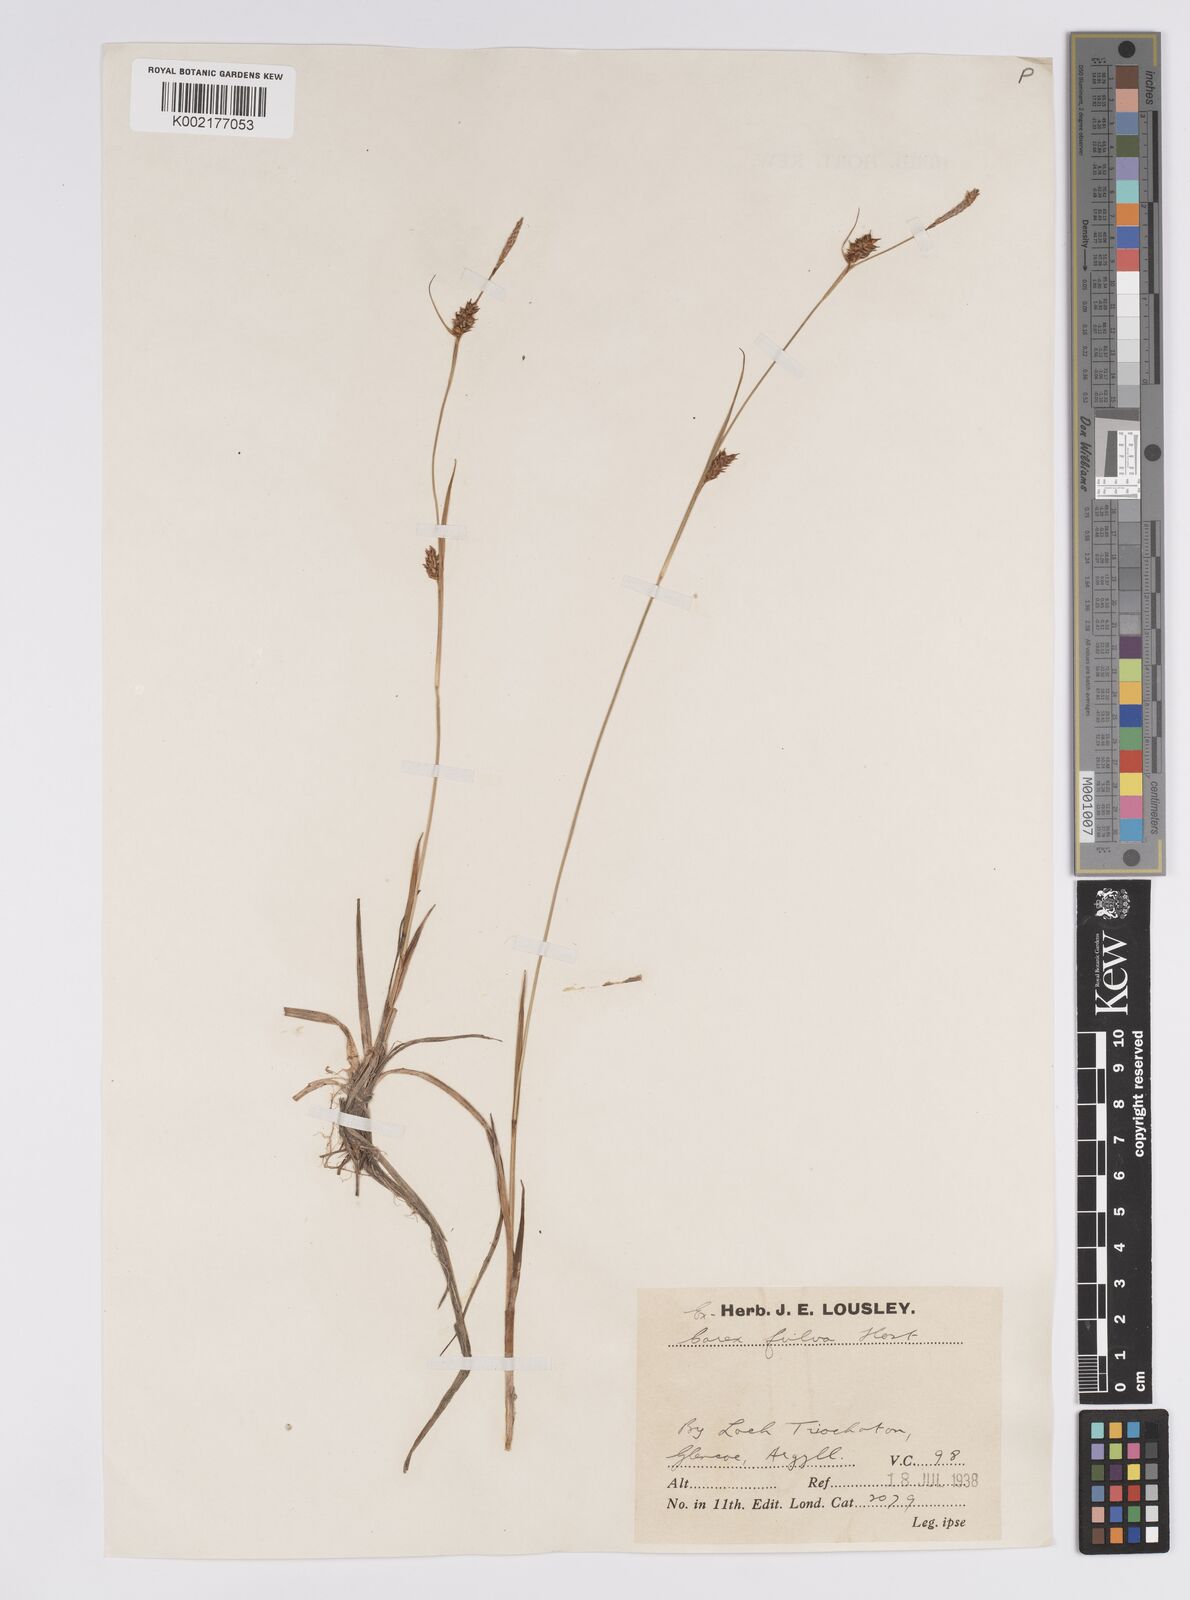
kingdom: Plantae
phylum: Tracheophyta
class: Liliopsida
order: Poales
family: Cyperaceae
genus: Carex
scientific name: Carex hostiana
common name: Tawny sedge
